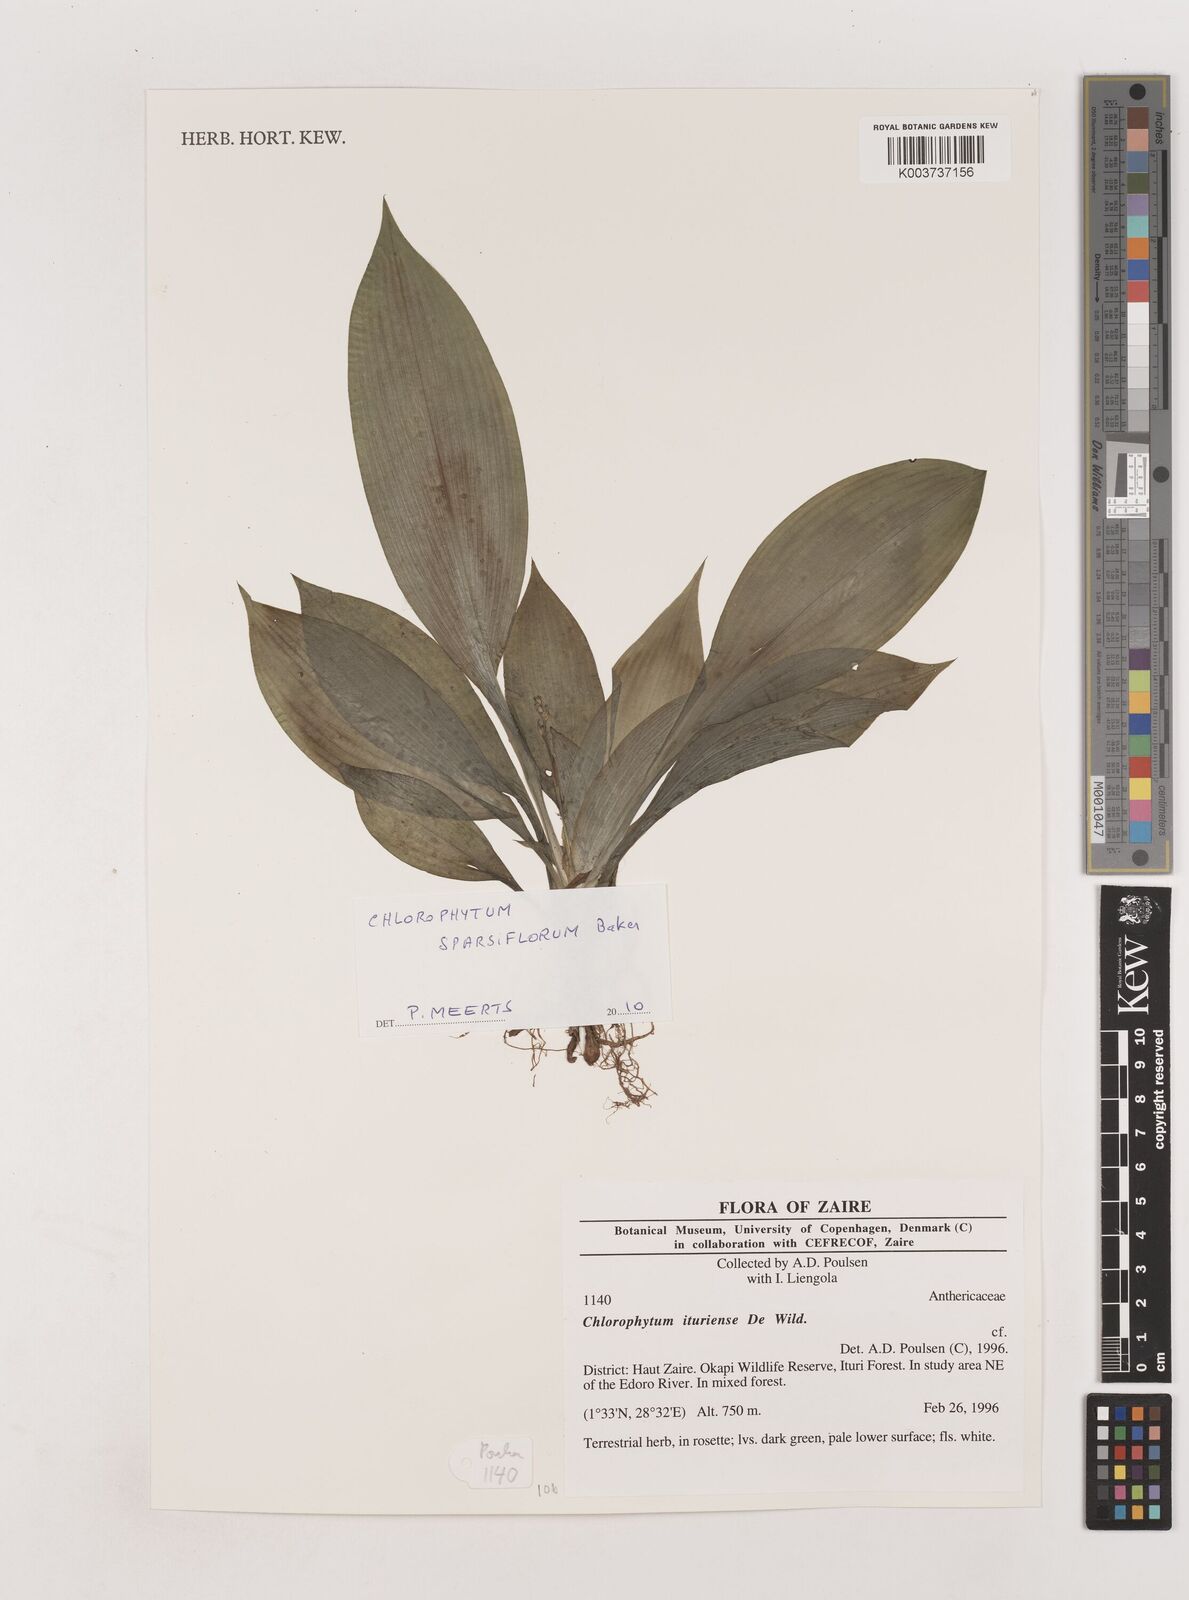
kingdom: Plantae
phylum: Tracheophyta
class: Liliopsida
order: Asparagales
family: Asparagaceae
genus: Chlorophytum
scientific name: Chlorophytum sparsiflorum
